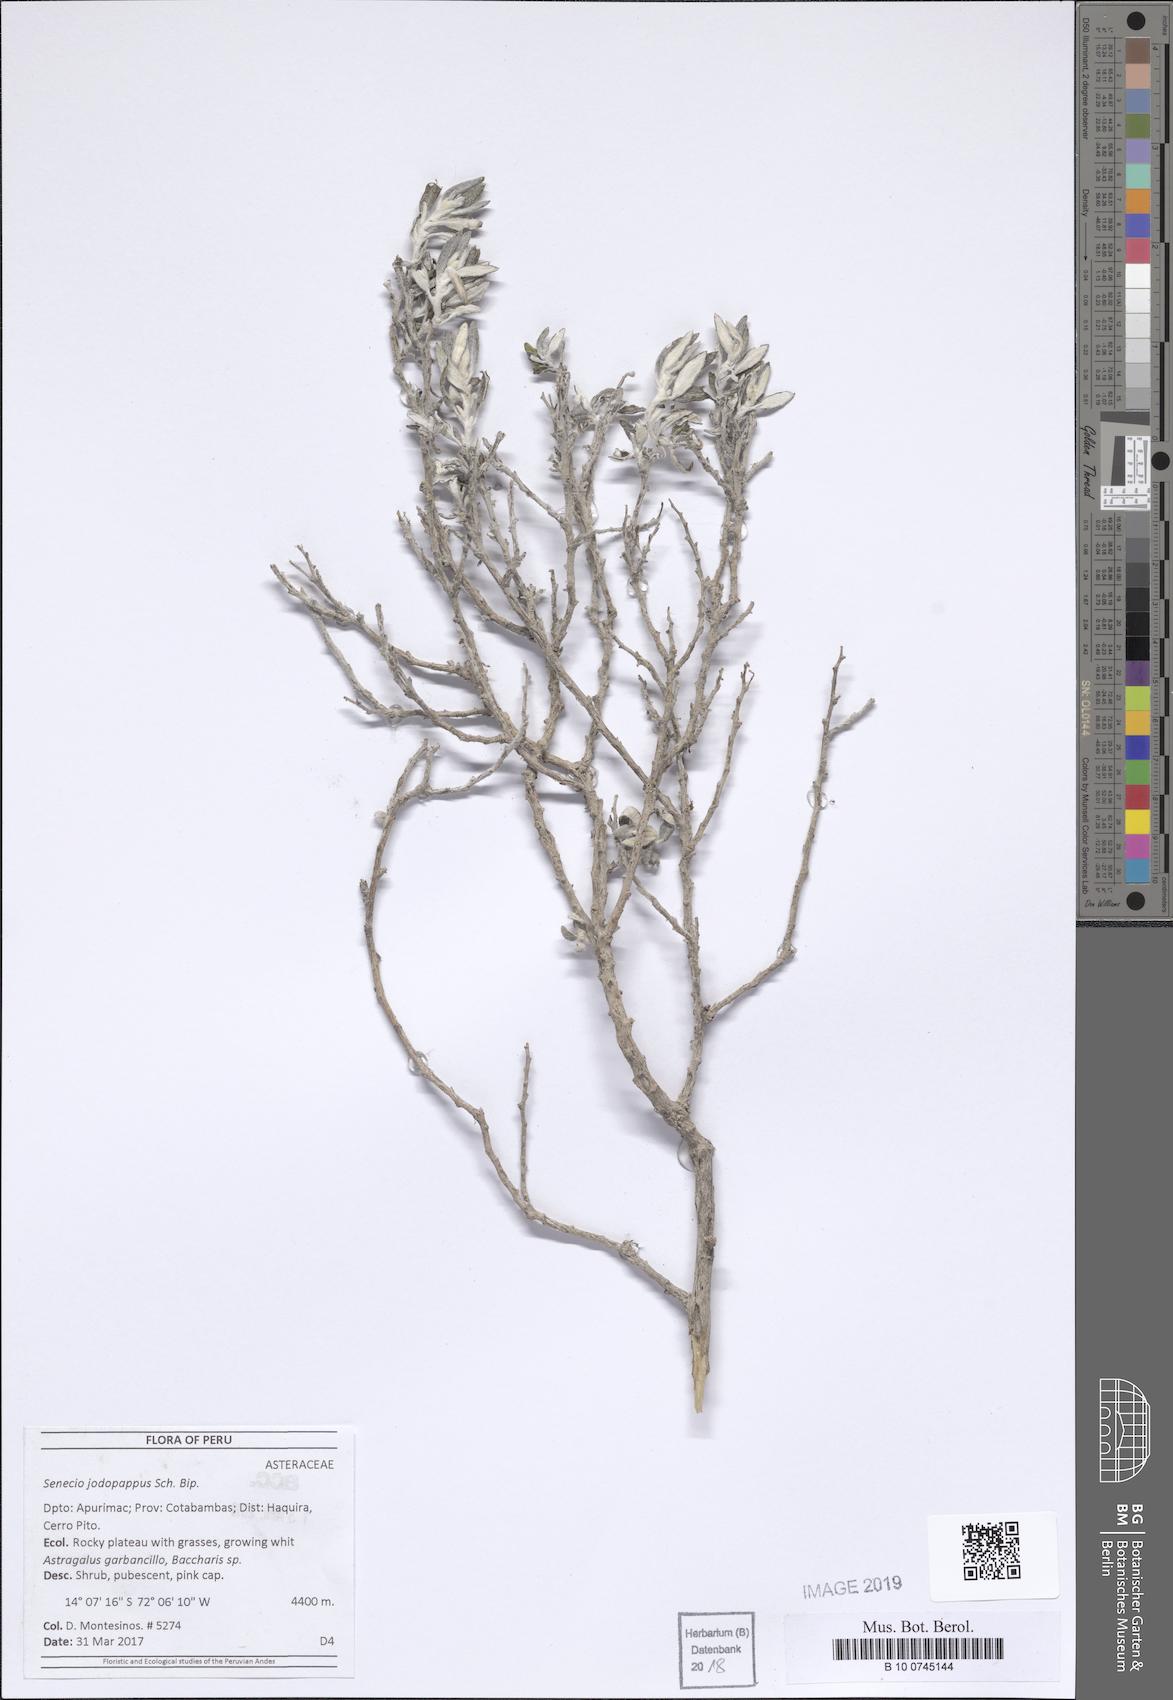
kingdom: Plantae
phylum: Tracheophyta
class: Magnoliopsida
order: Asterales
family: Asteraceae
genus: Chersodoma
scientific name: Chersodoma jodopappa
